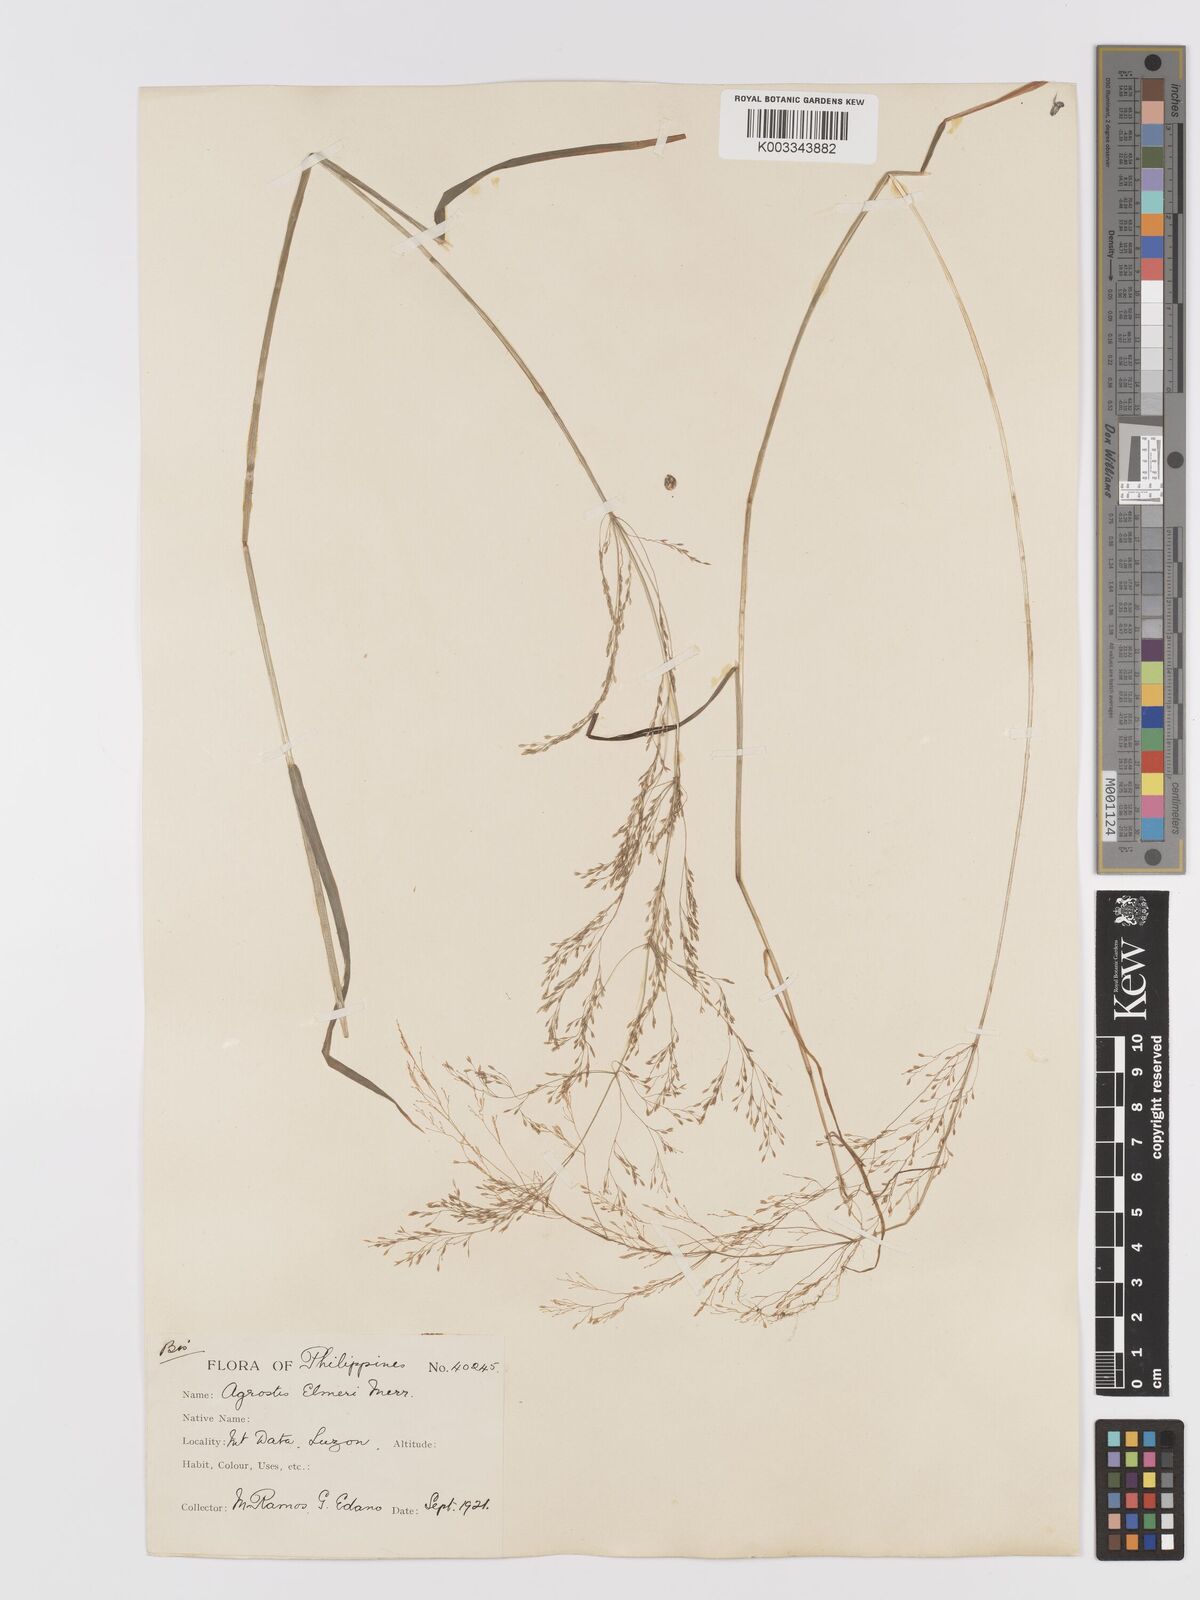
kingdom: Plantae
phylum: Tracheophyta
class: Liliopsida
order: Poales
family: Poaceae
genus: Agrostis
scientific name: Agrostis infirma
